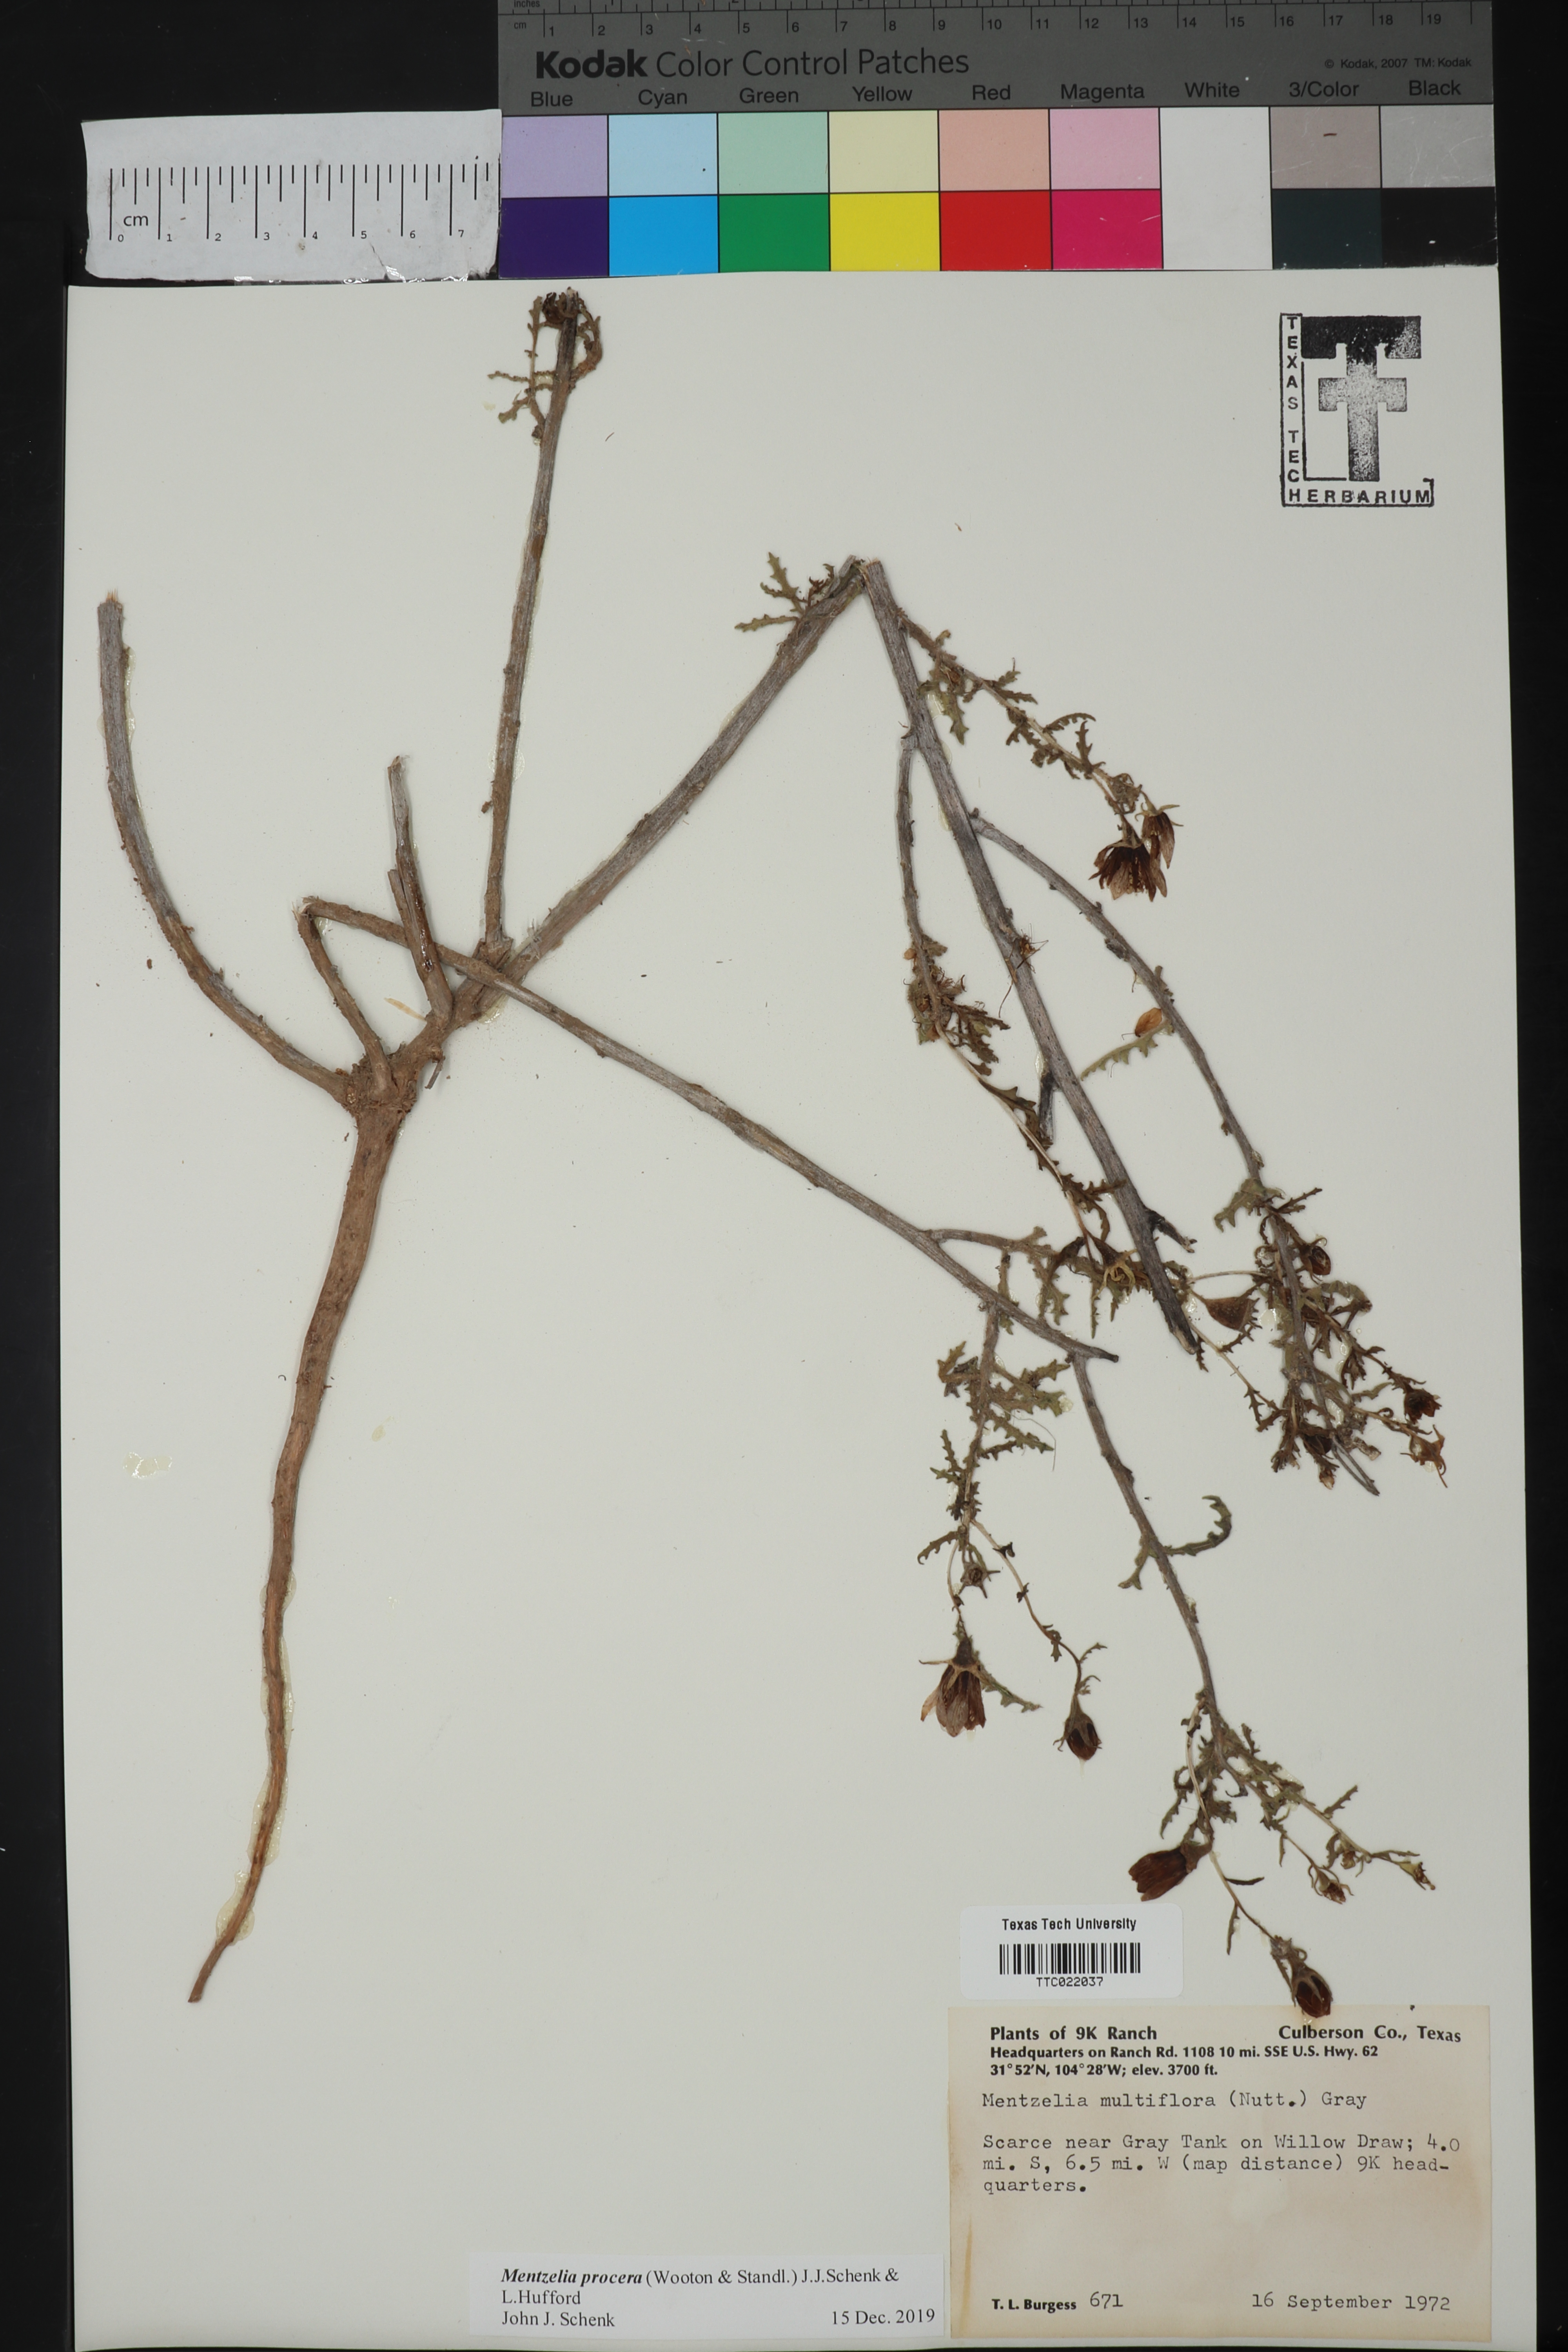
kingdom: Plantae
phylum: Tracheophyta
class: Magnoliopsida
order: Cornales
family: Loasaceae
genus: Mentzelia
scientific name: Mentzelia procera
